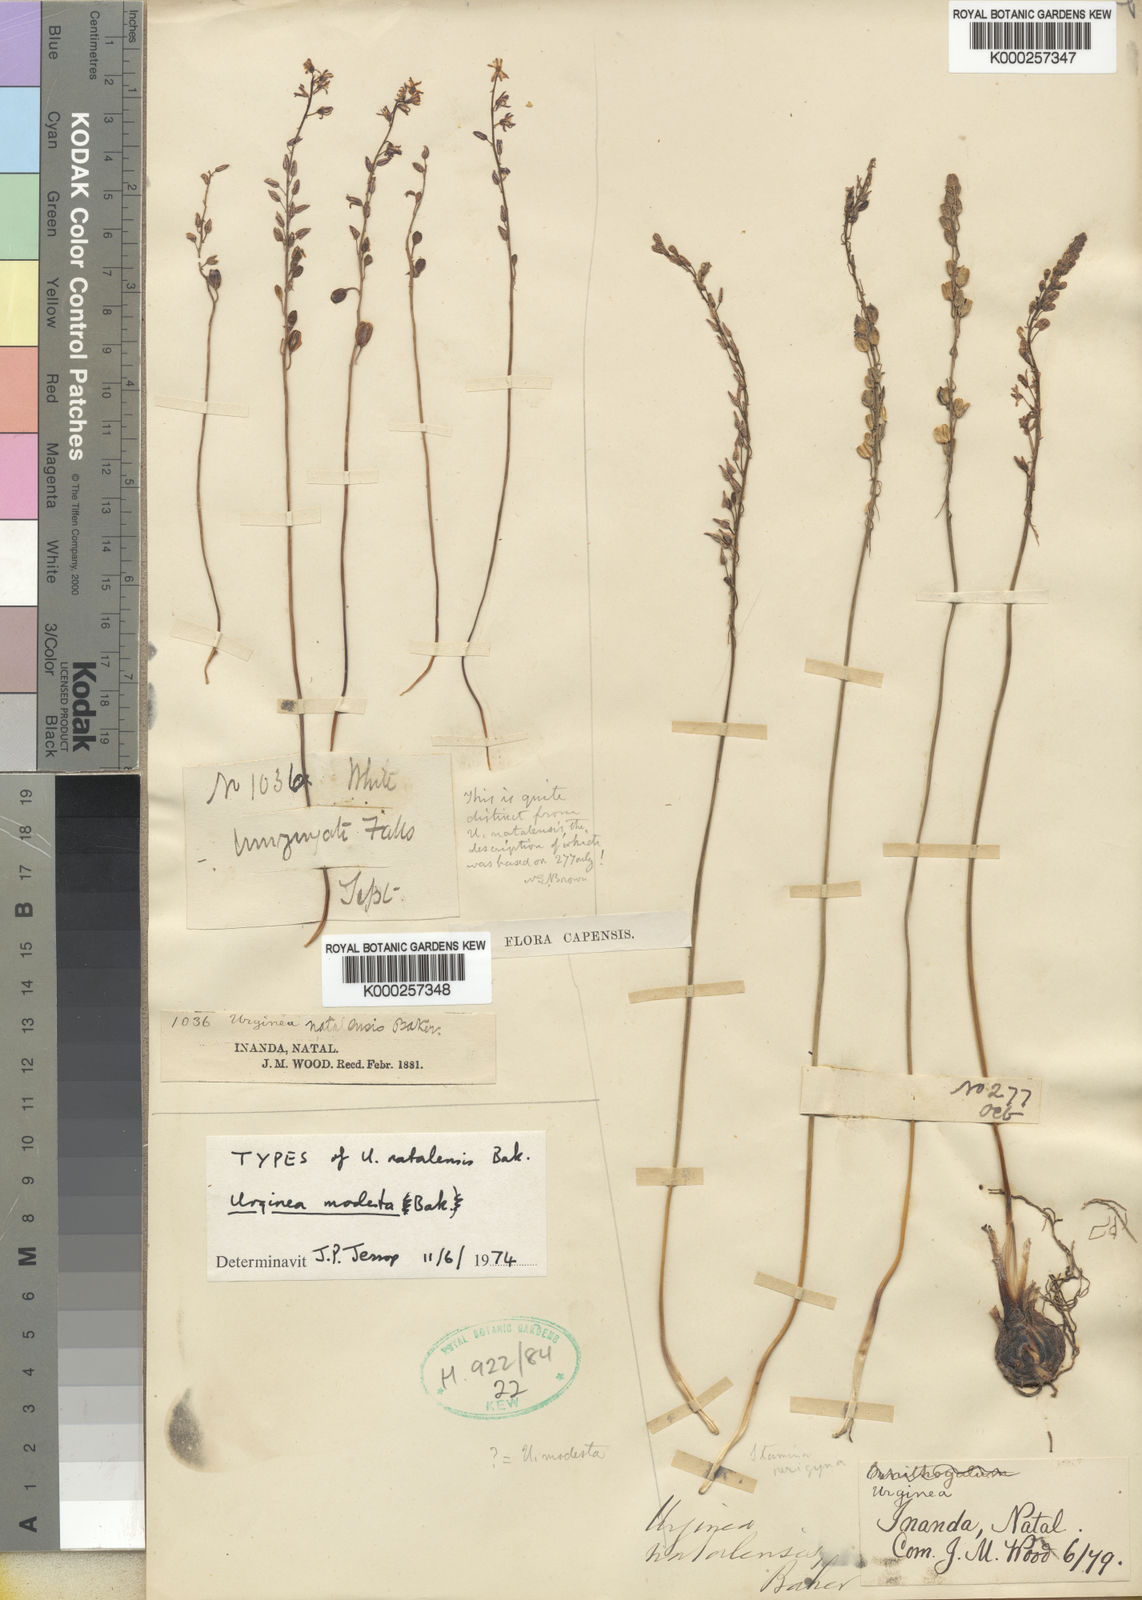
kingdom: Plantae
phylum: Tracheophyta
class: Liliopsida
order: Asparagales
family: Asparagaceae
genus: Drimia
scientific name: Drimia modesta
